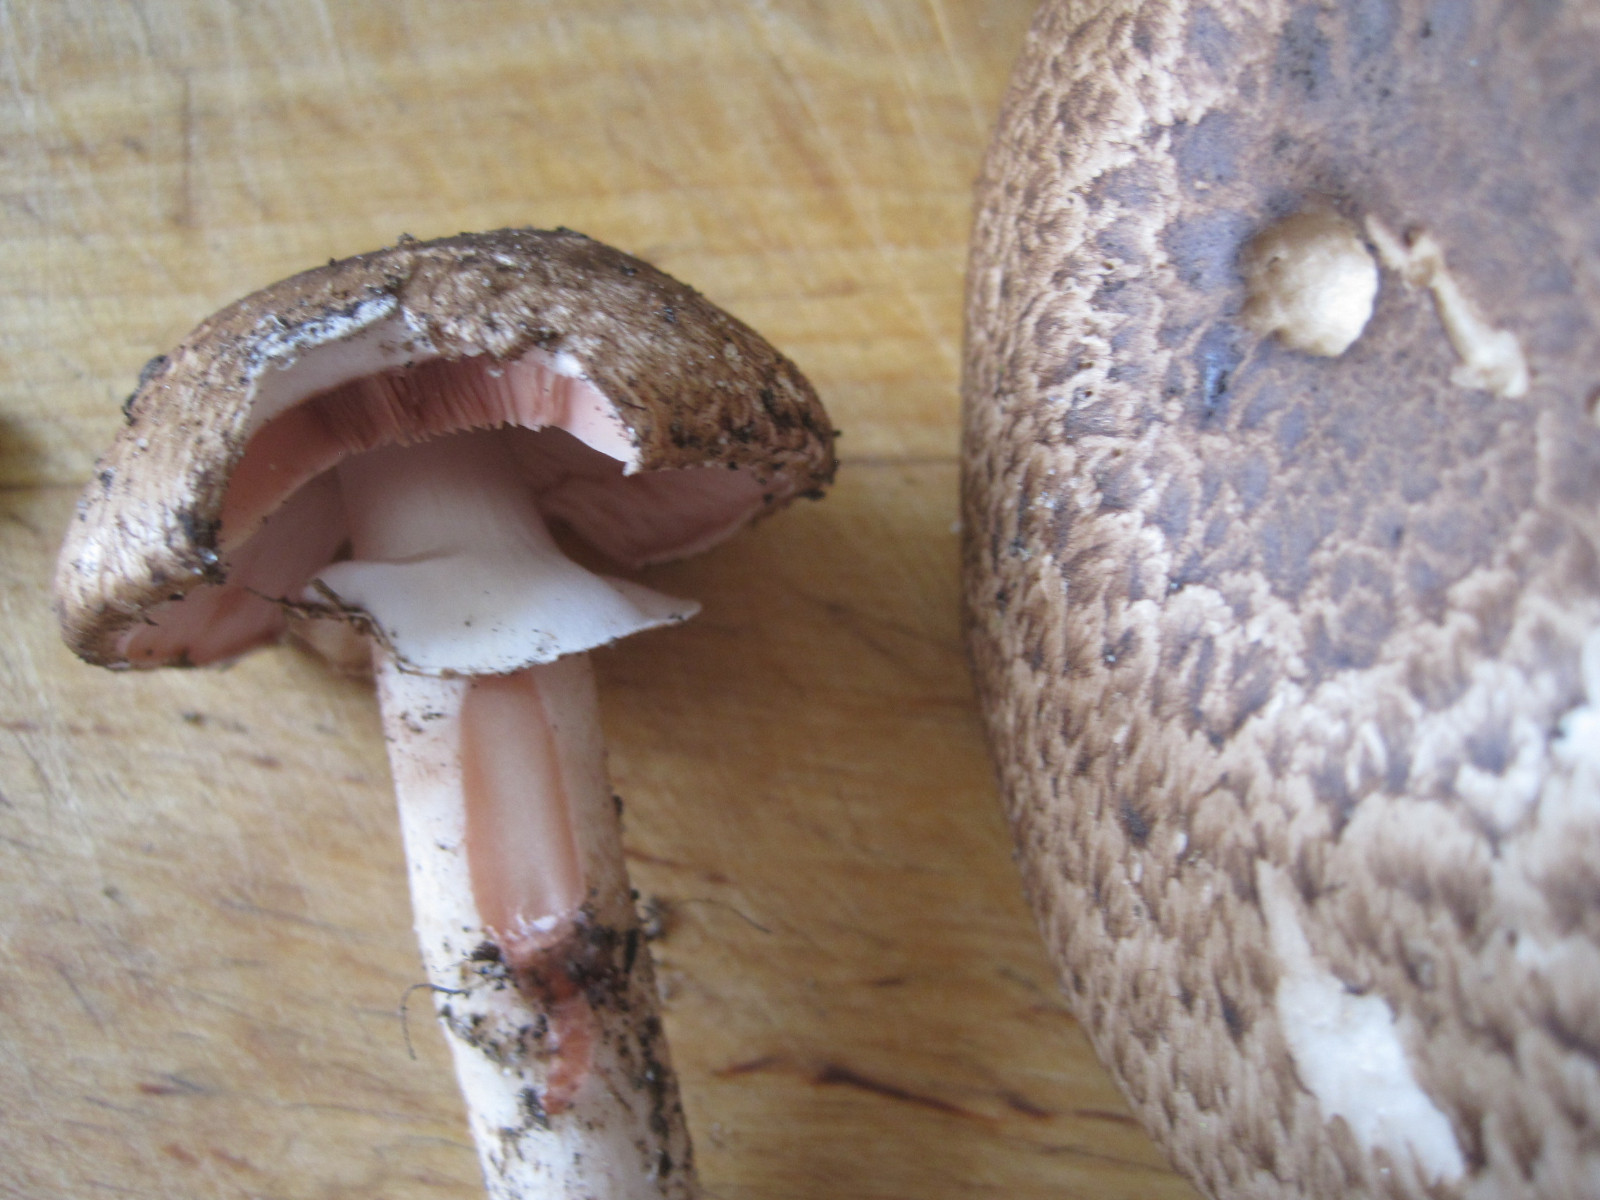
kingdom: Fungi
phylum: Basidiomycota
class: Agaricomycetes
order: Agaricales
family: Agaricaceae
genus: Agaricus
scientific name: Agaricus langei
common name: stor blod-champignon
